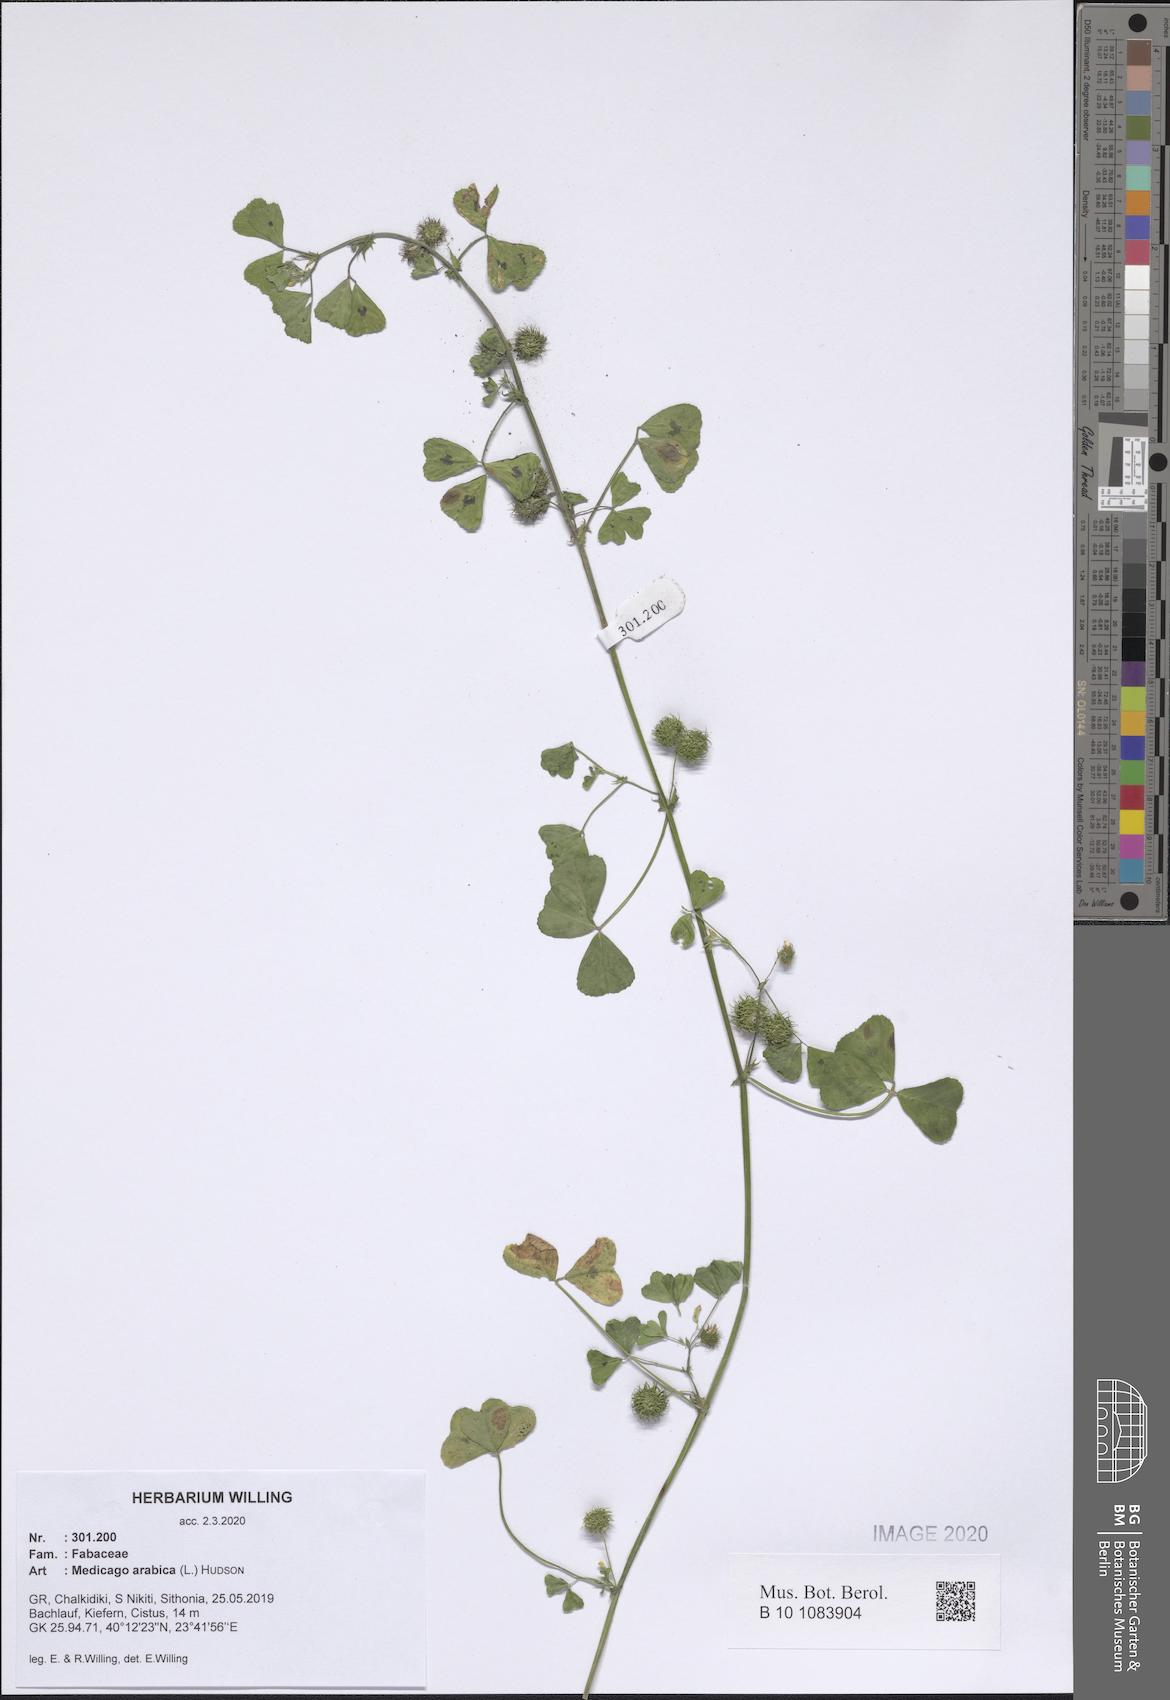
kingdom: Plantae
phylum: Tracheophyta
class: Magnoliopsida
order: Fabales
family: Fabaceae
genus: Medicago
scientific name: Medicago arabica
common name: Spotted medick
